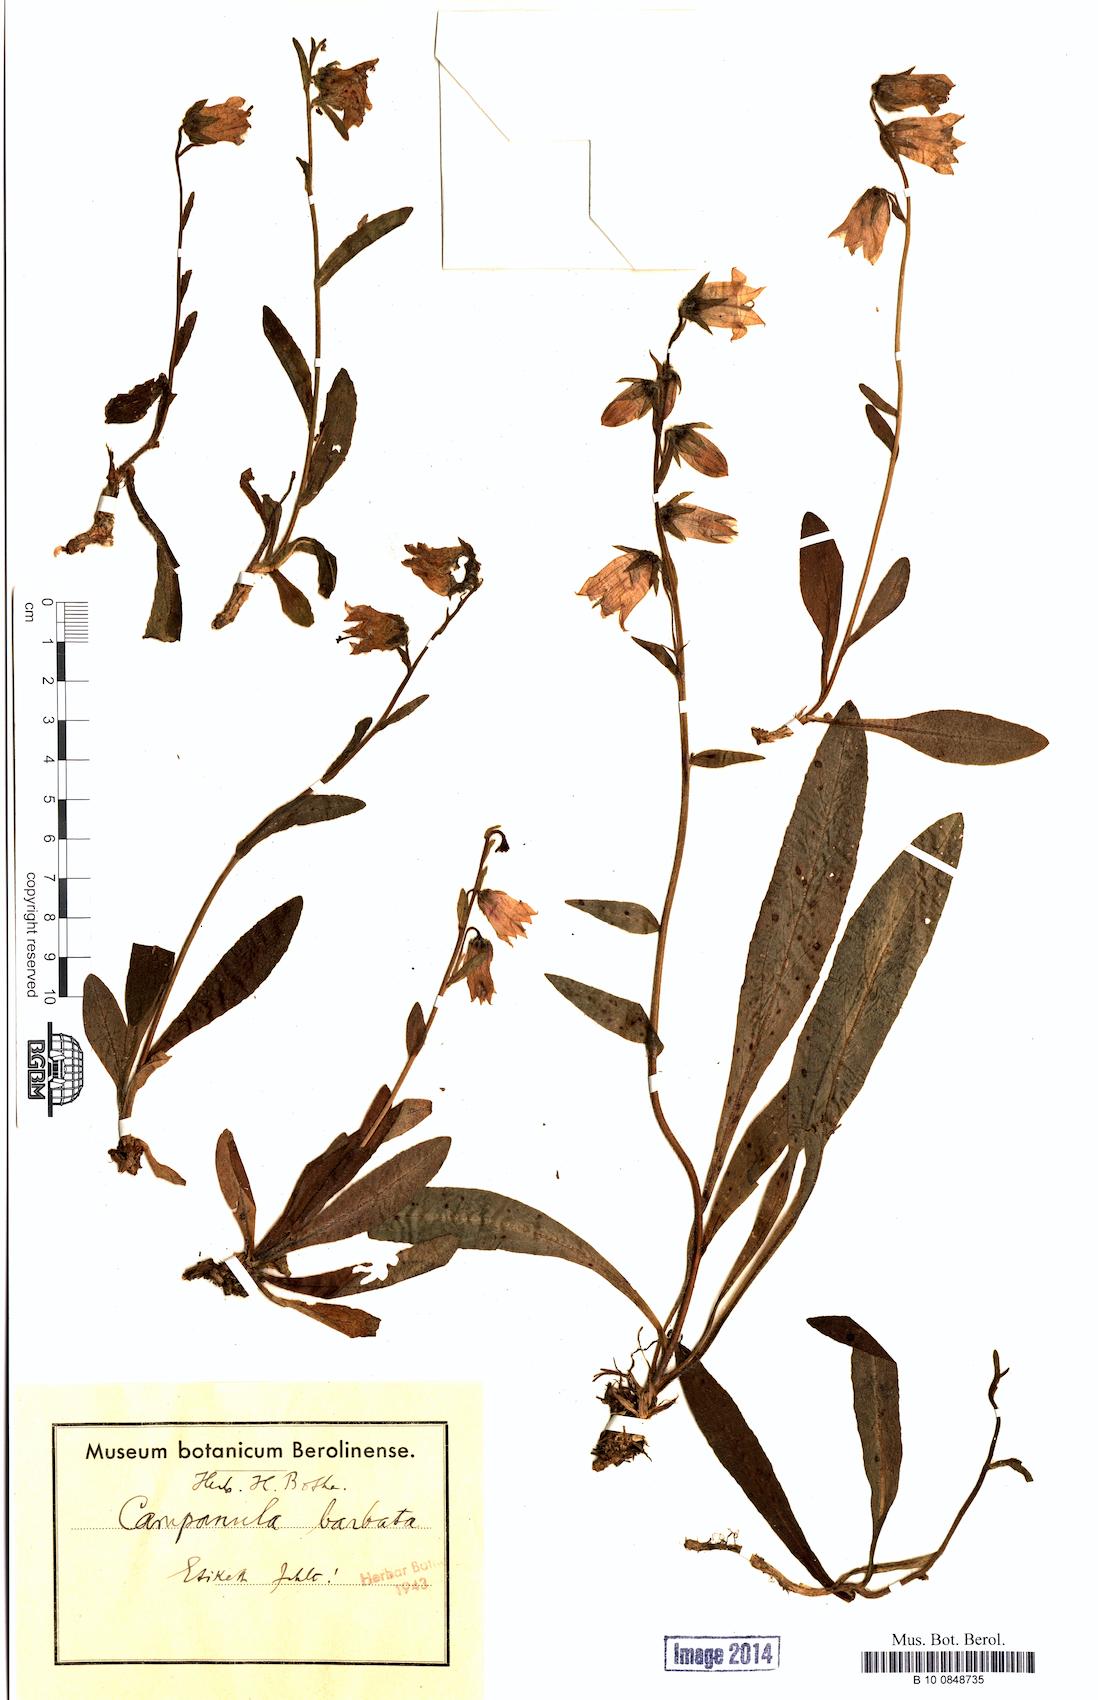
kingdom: Plantae
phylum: Tracheophyta
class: Magnoliopsida
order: Asterales
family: Campanulaceae
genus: Campanula
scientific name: Campanula barbata
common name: Bearded bellflower
